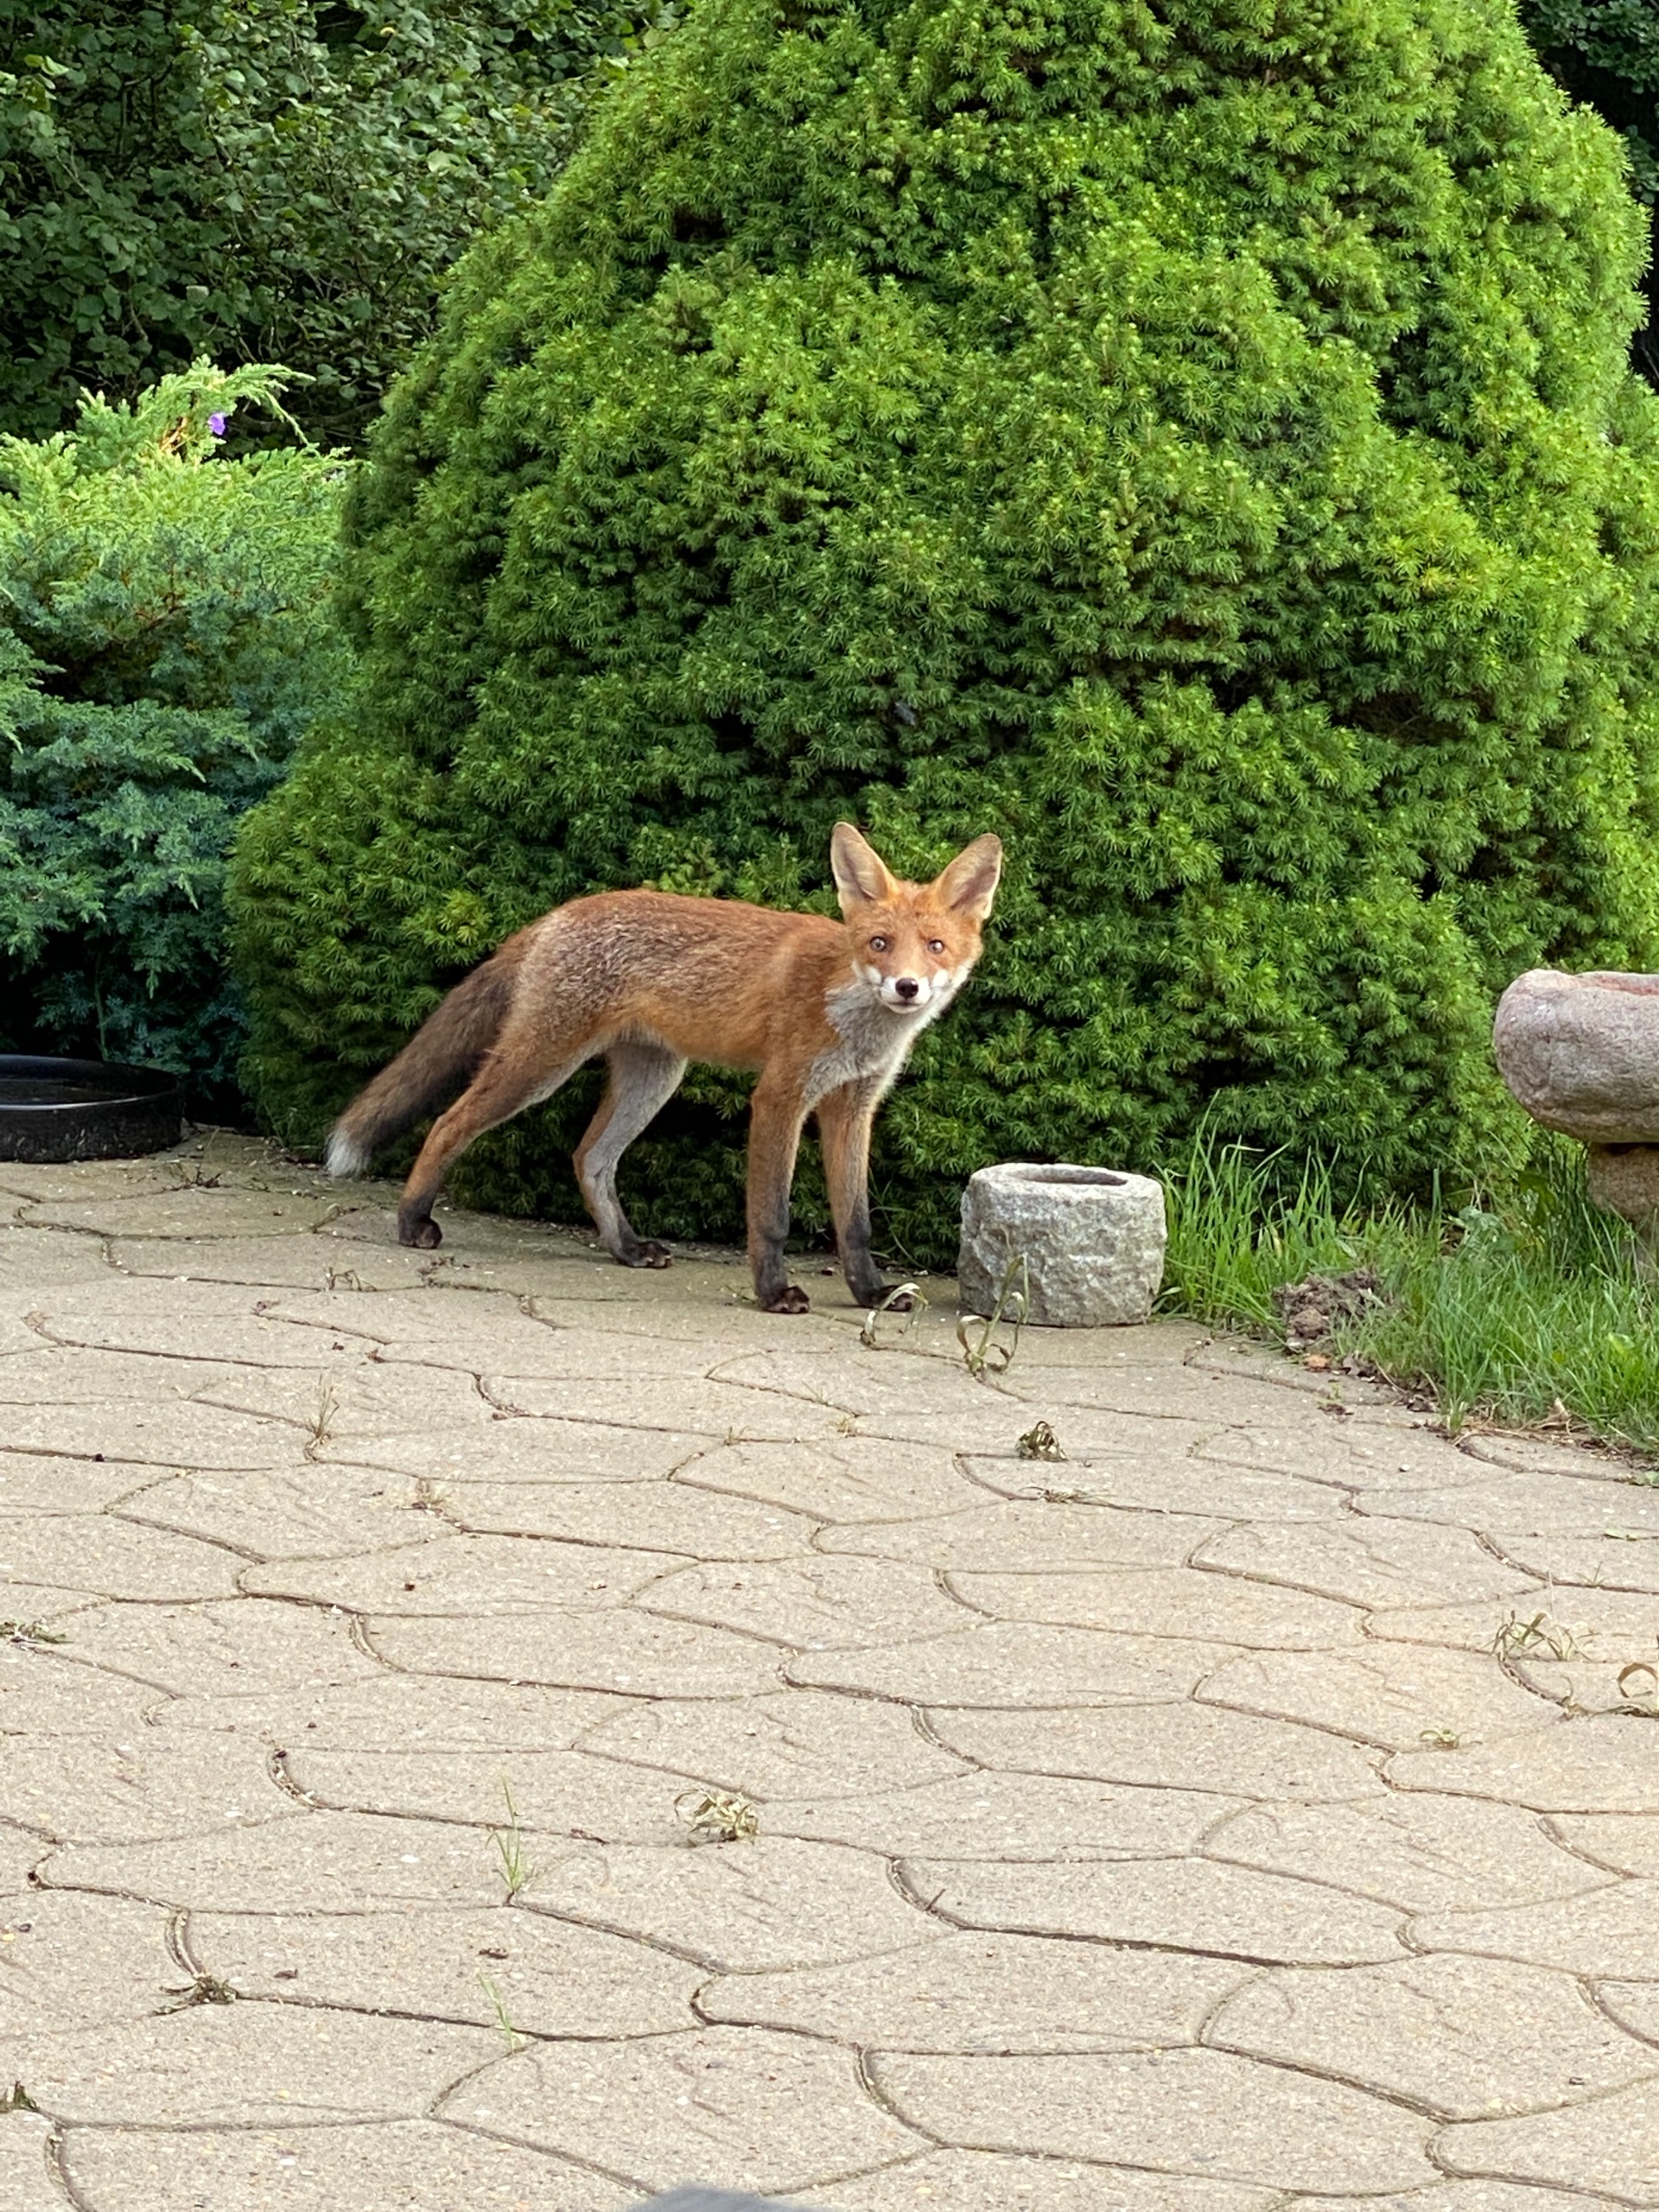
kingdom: Animalia
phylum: Chordata
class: Mammalia
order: Carnivora
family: Canidae
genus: Vulpes
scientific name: Vulpes vulpes
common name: Ræv
